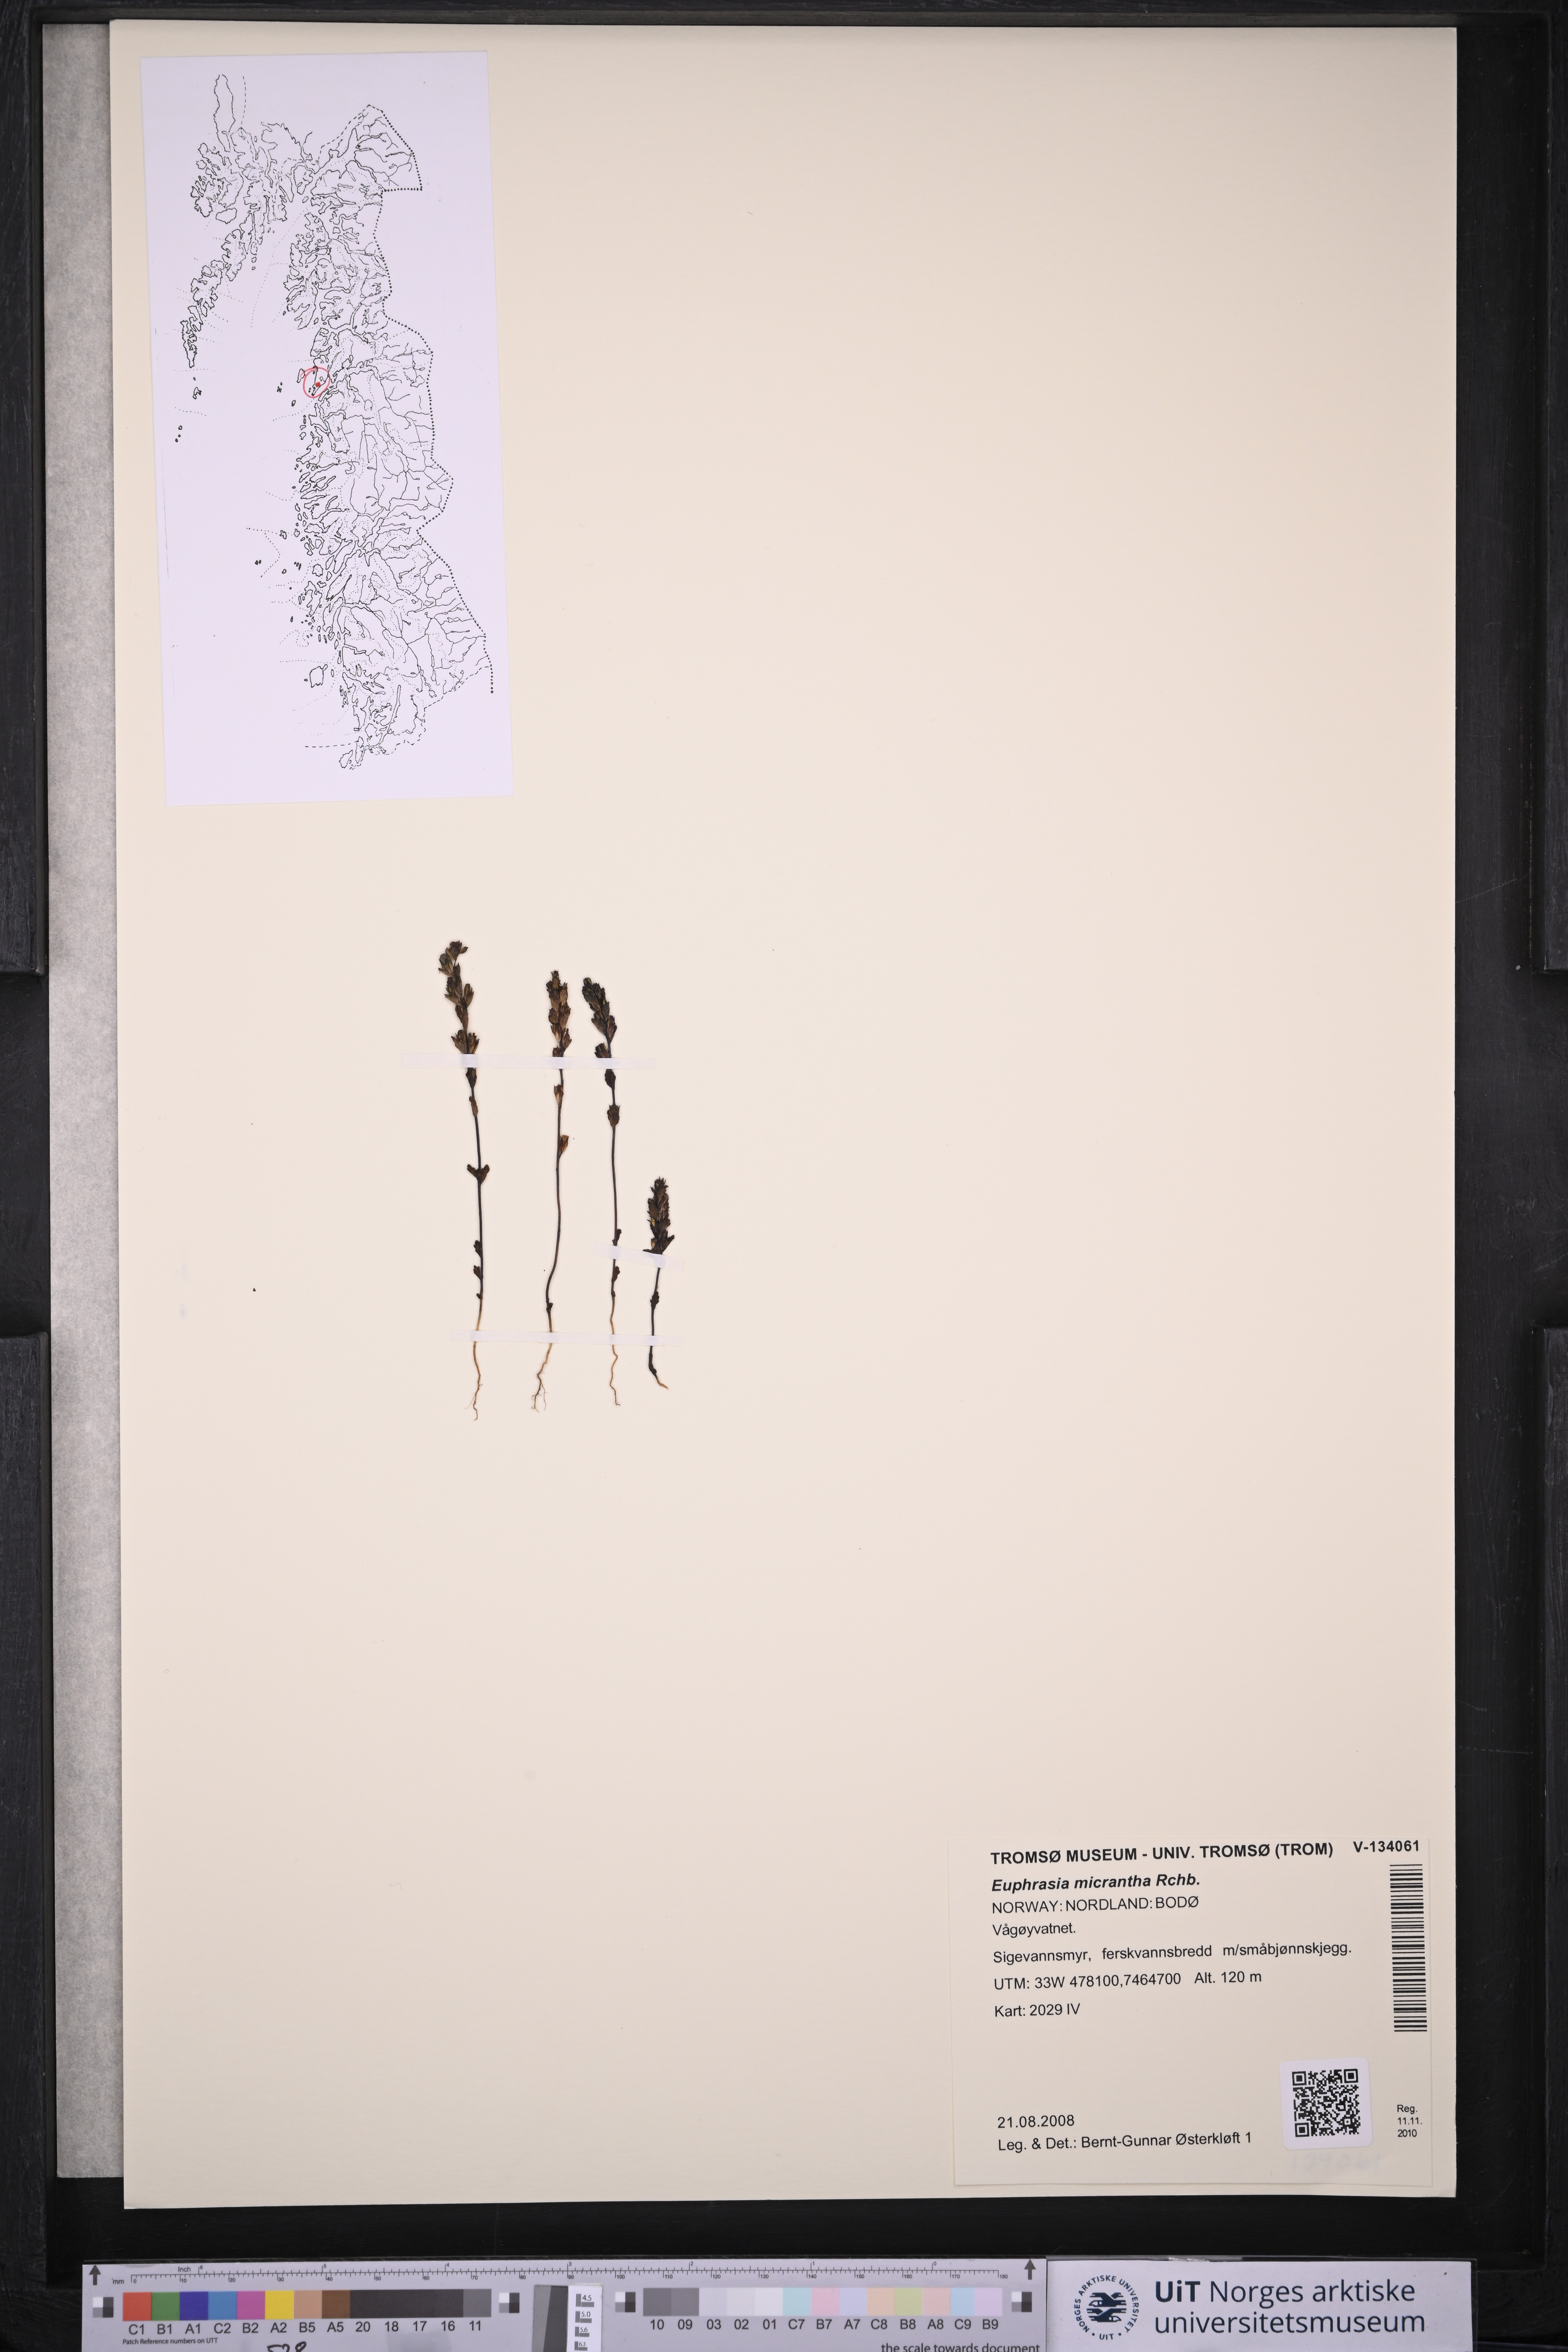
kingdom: Plantae
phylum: Tracheophyta
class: Magnoliopsida
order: Lamiales
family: Orobanchaceae
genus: Euphrasia
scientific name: Euphrasia micrantha
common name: Northern eyebright
